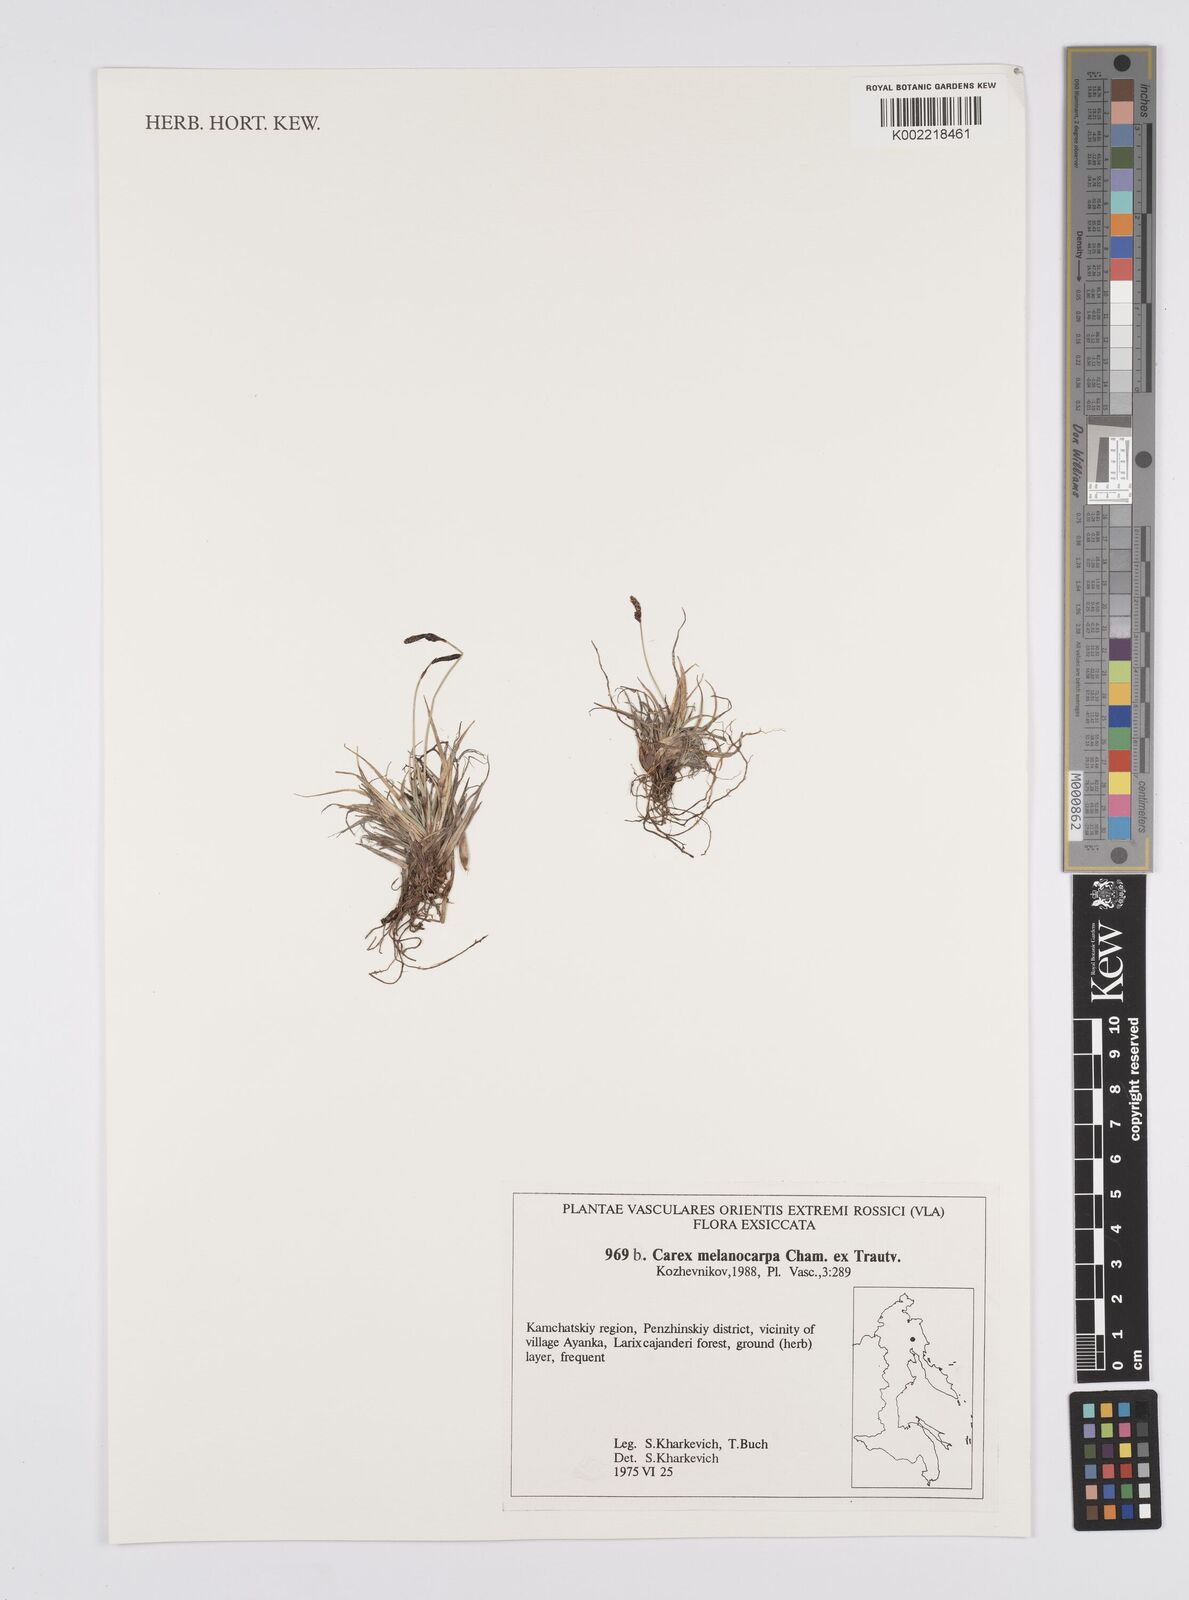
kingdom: Plantae
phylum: Tracheophyta
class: Liliopsida
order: Poales
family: Cyperaceae
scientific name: Cyperaceae
